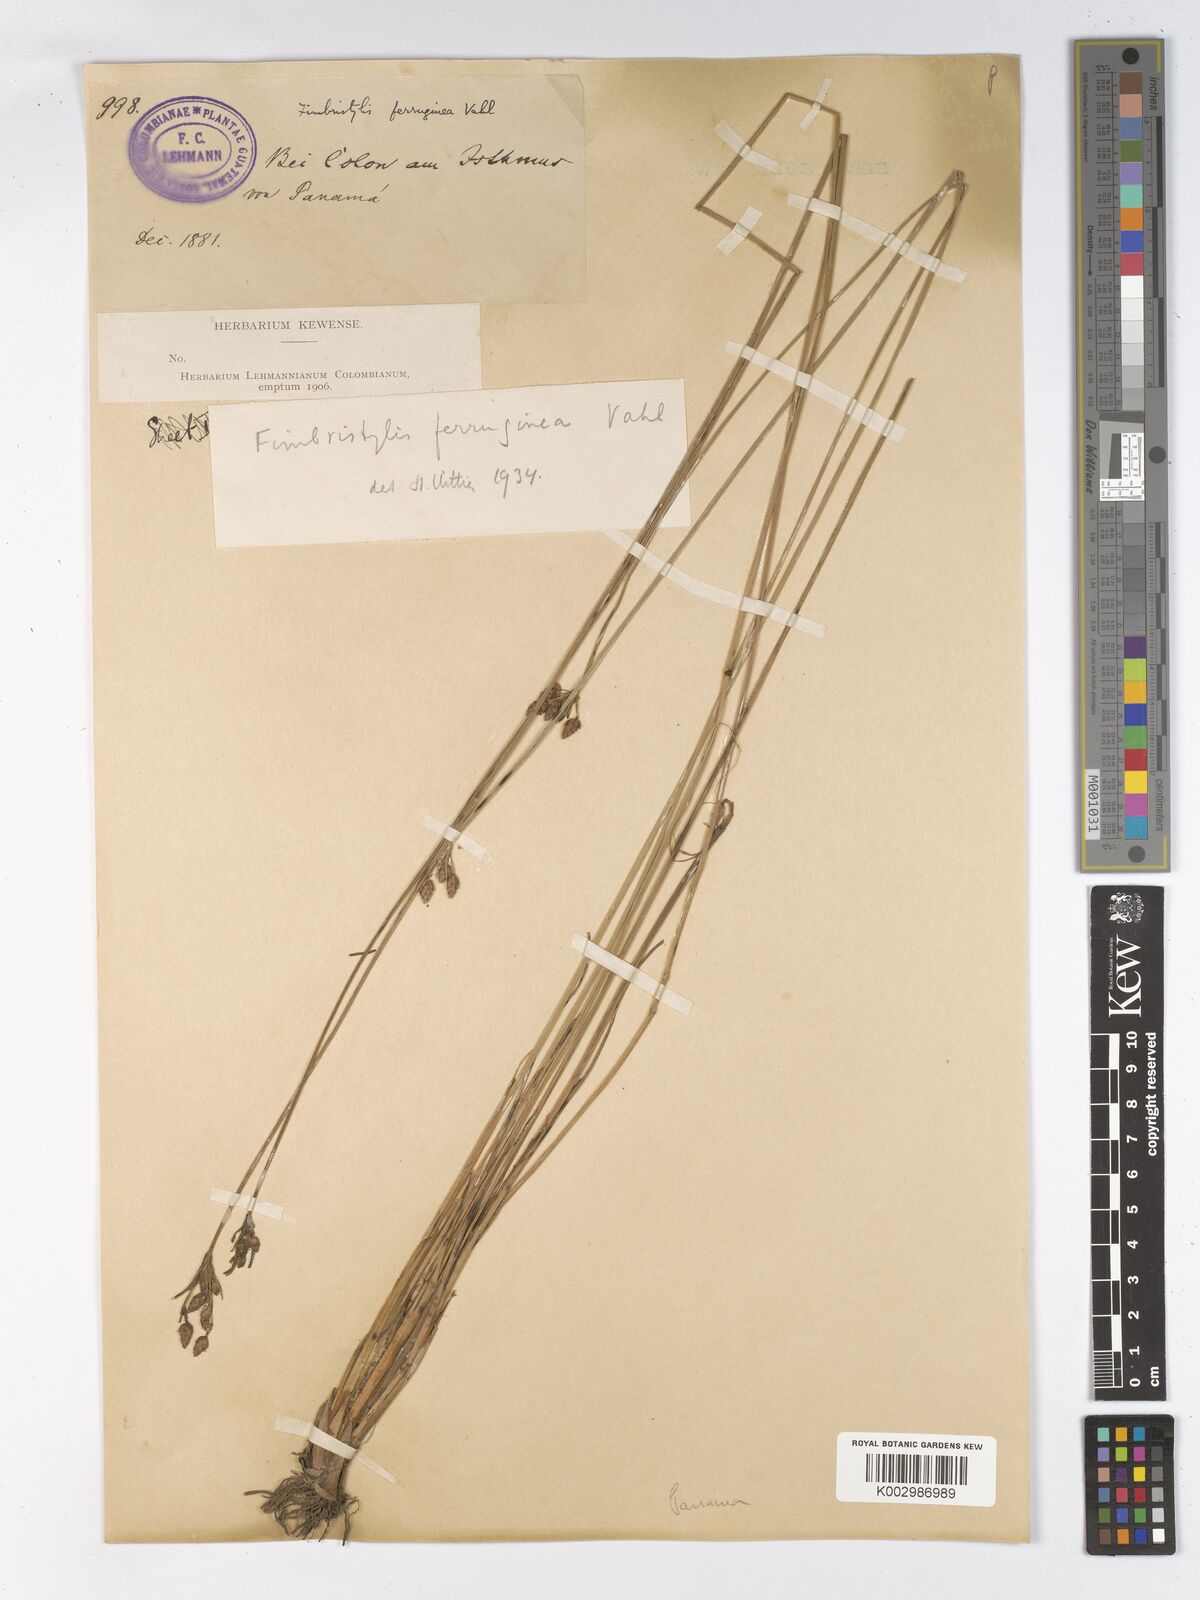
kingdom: Plantae
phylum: Tracheophyta
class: Liliopsida
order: Poales
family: Cyperaceae
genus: Fimbristylis
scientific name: Fimbristylis ferruginea
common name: West indian fimbry
